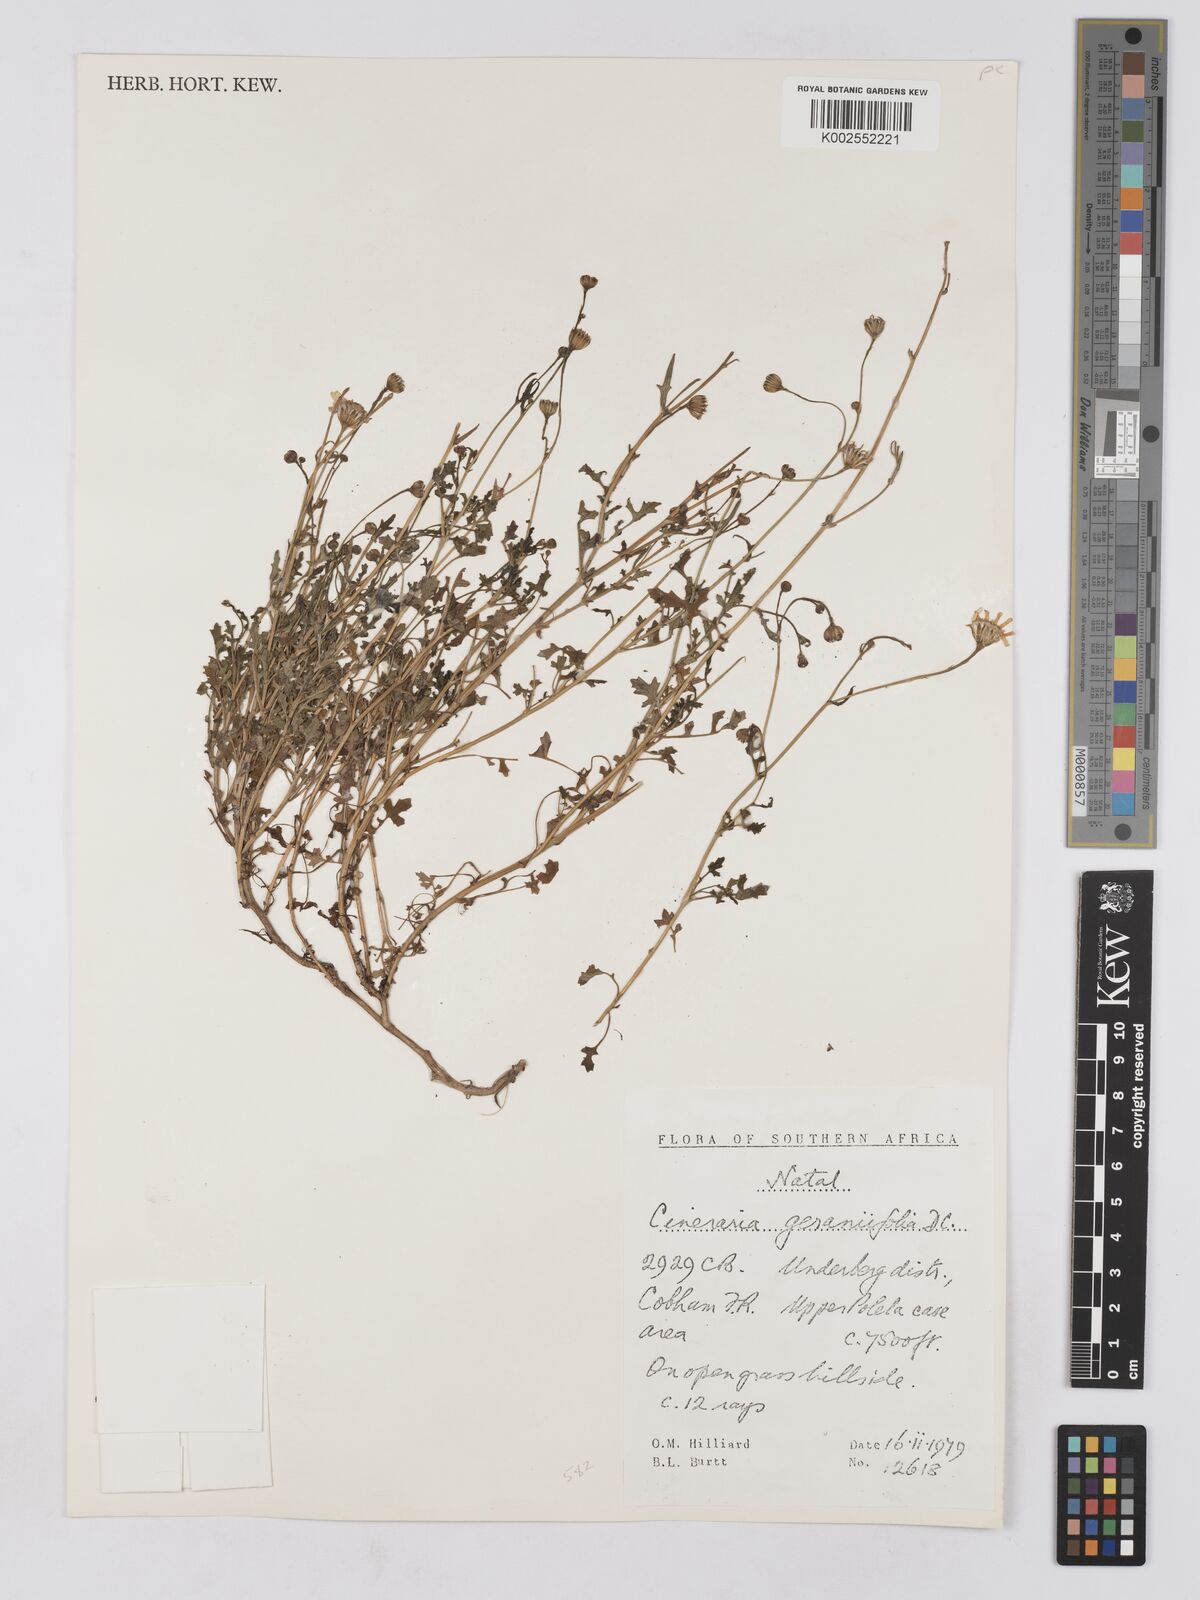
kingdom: Plantae
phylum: Tracheophyta
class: Magnoliopsida
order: Asterales
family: Asteraceae
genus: Cineraria
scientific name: Cineraria geraniifolia
